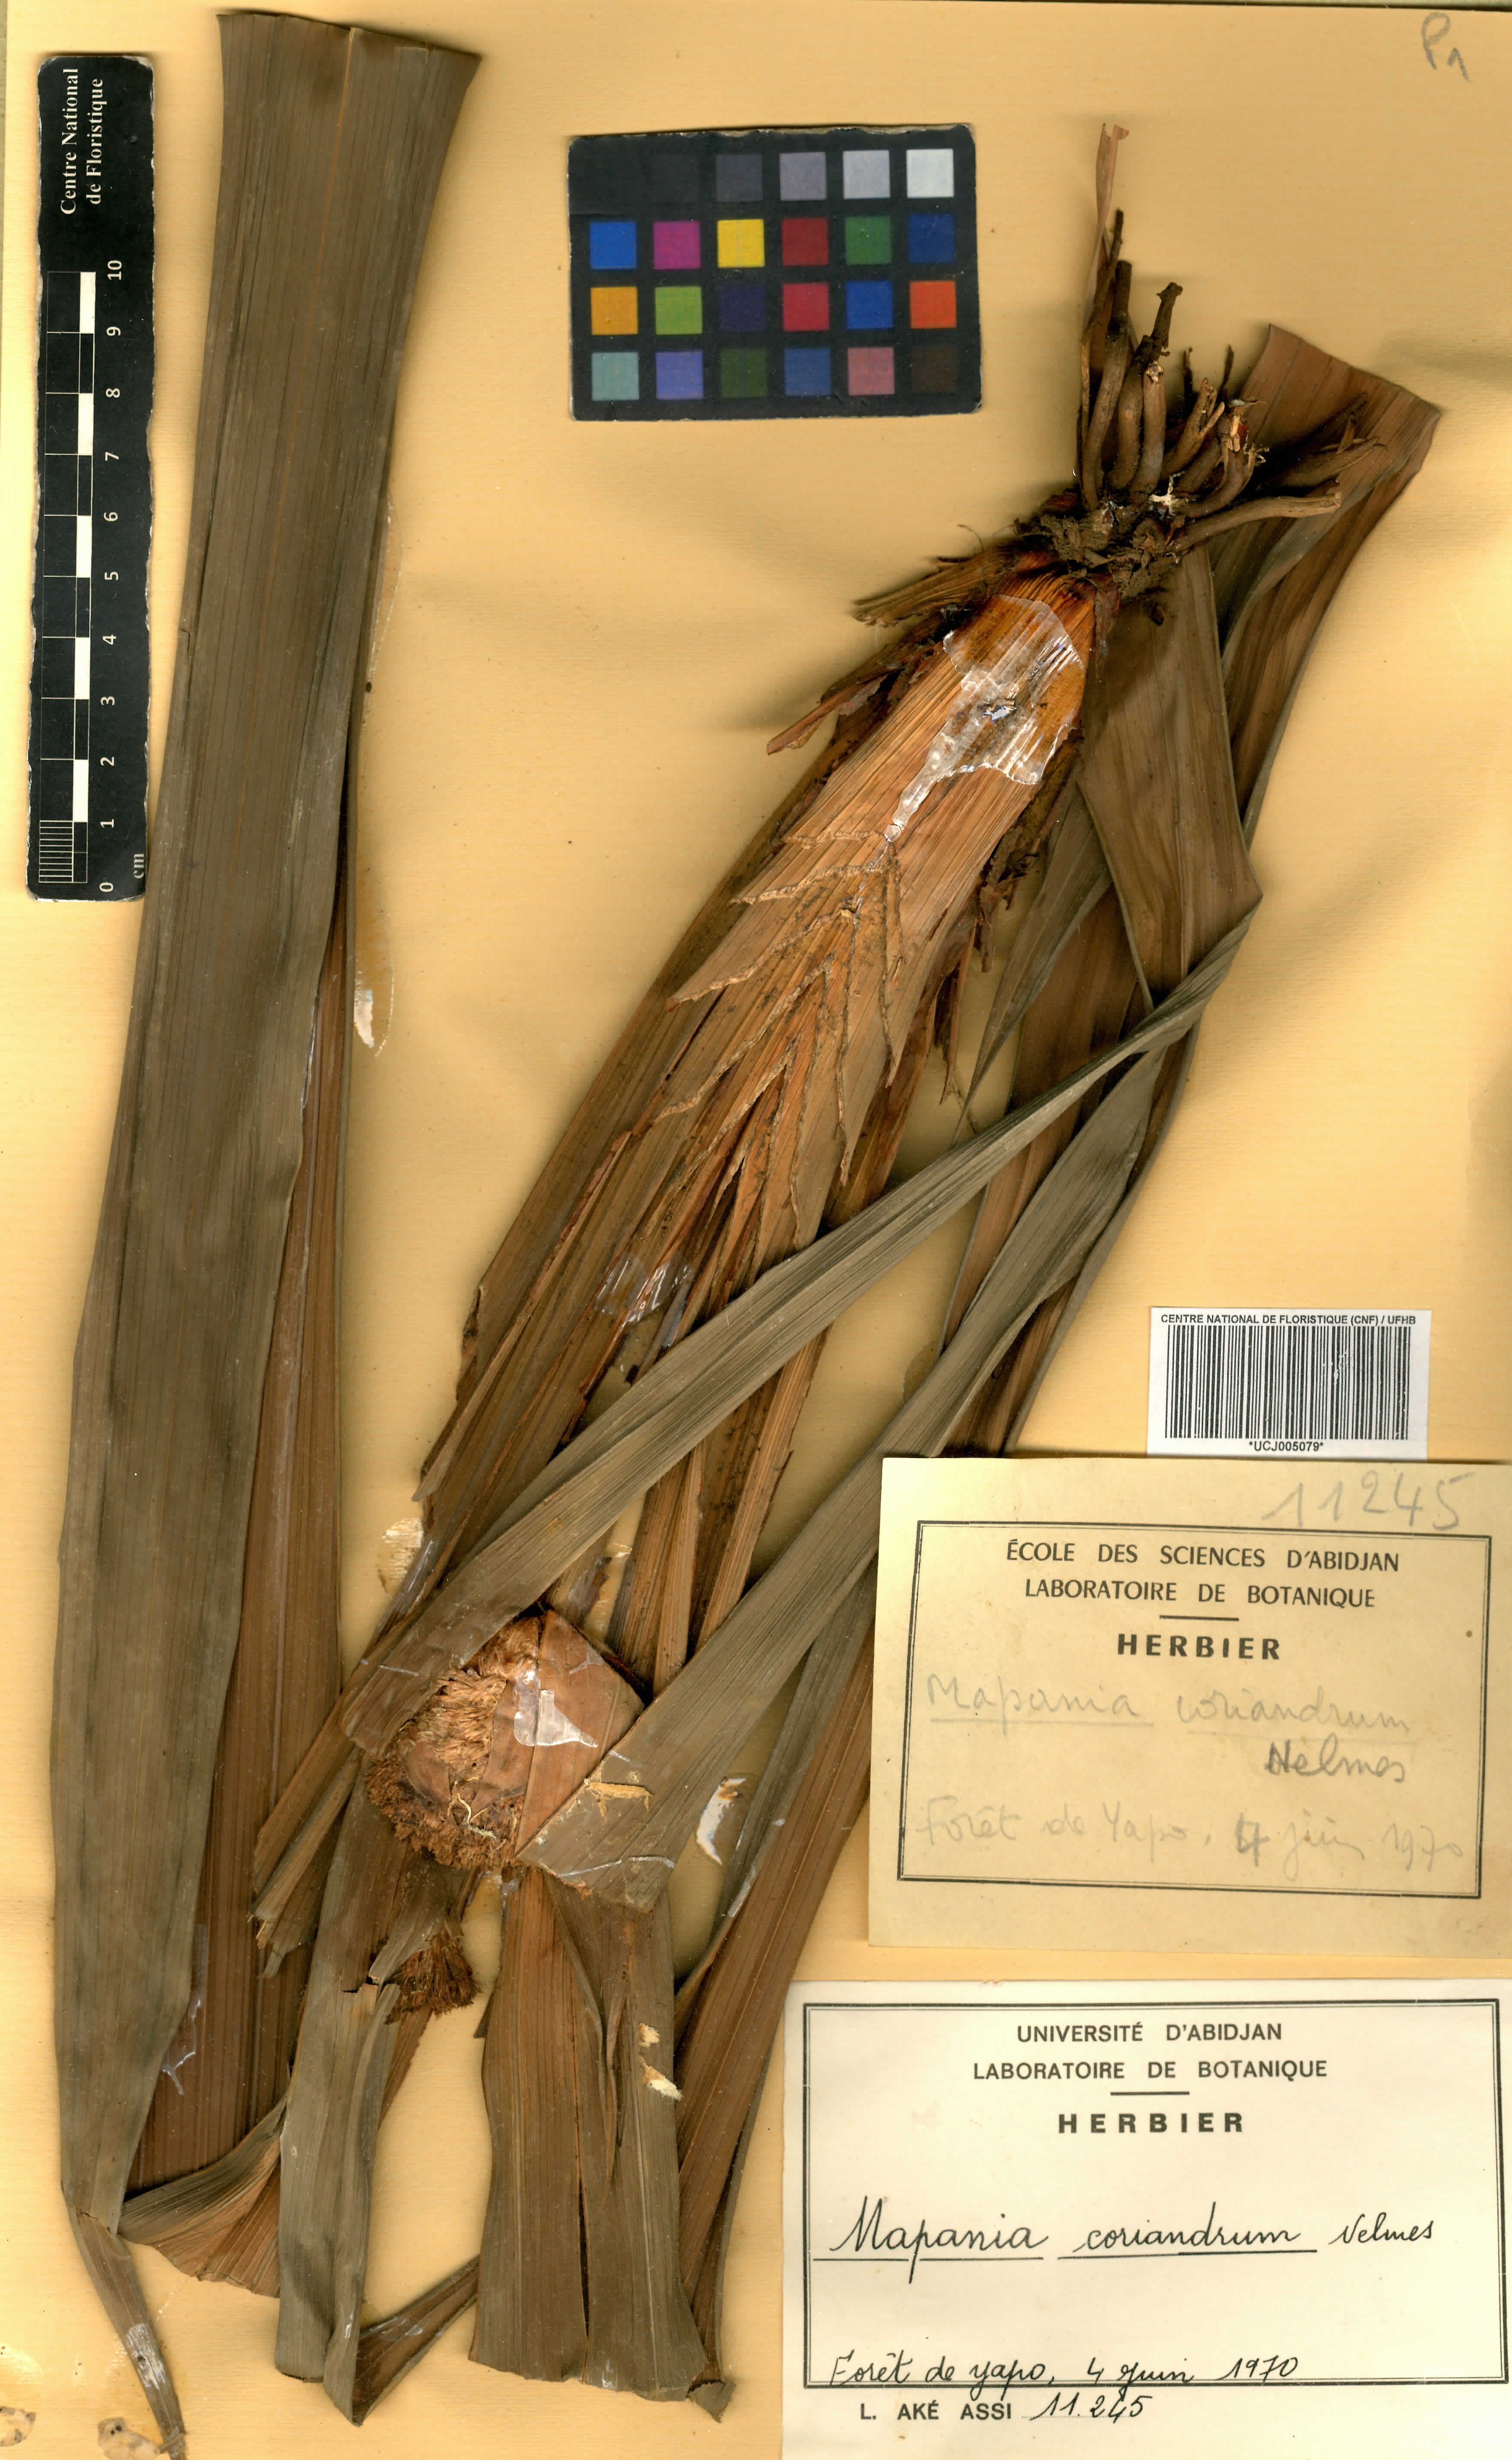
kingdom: Plantae
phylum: Tracheophyta
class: Liliopsida
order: Poales
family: Cyperaceae
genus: Mapania
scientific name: Mapania coriandrum
